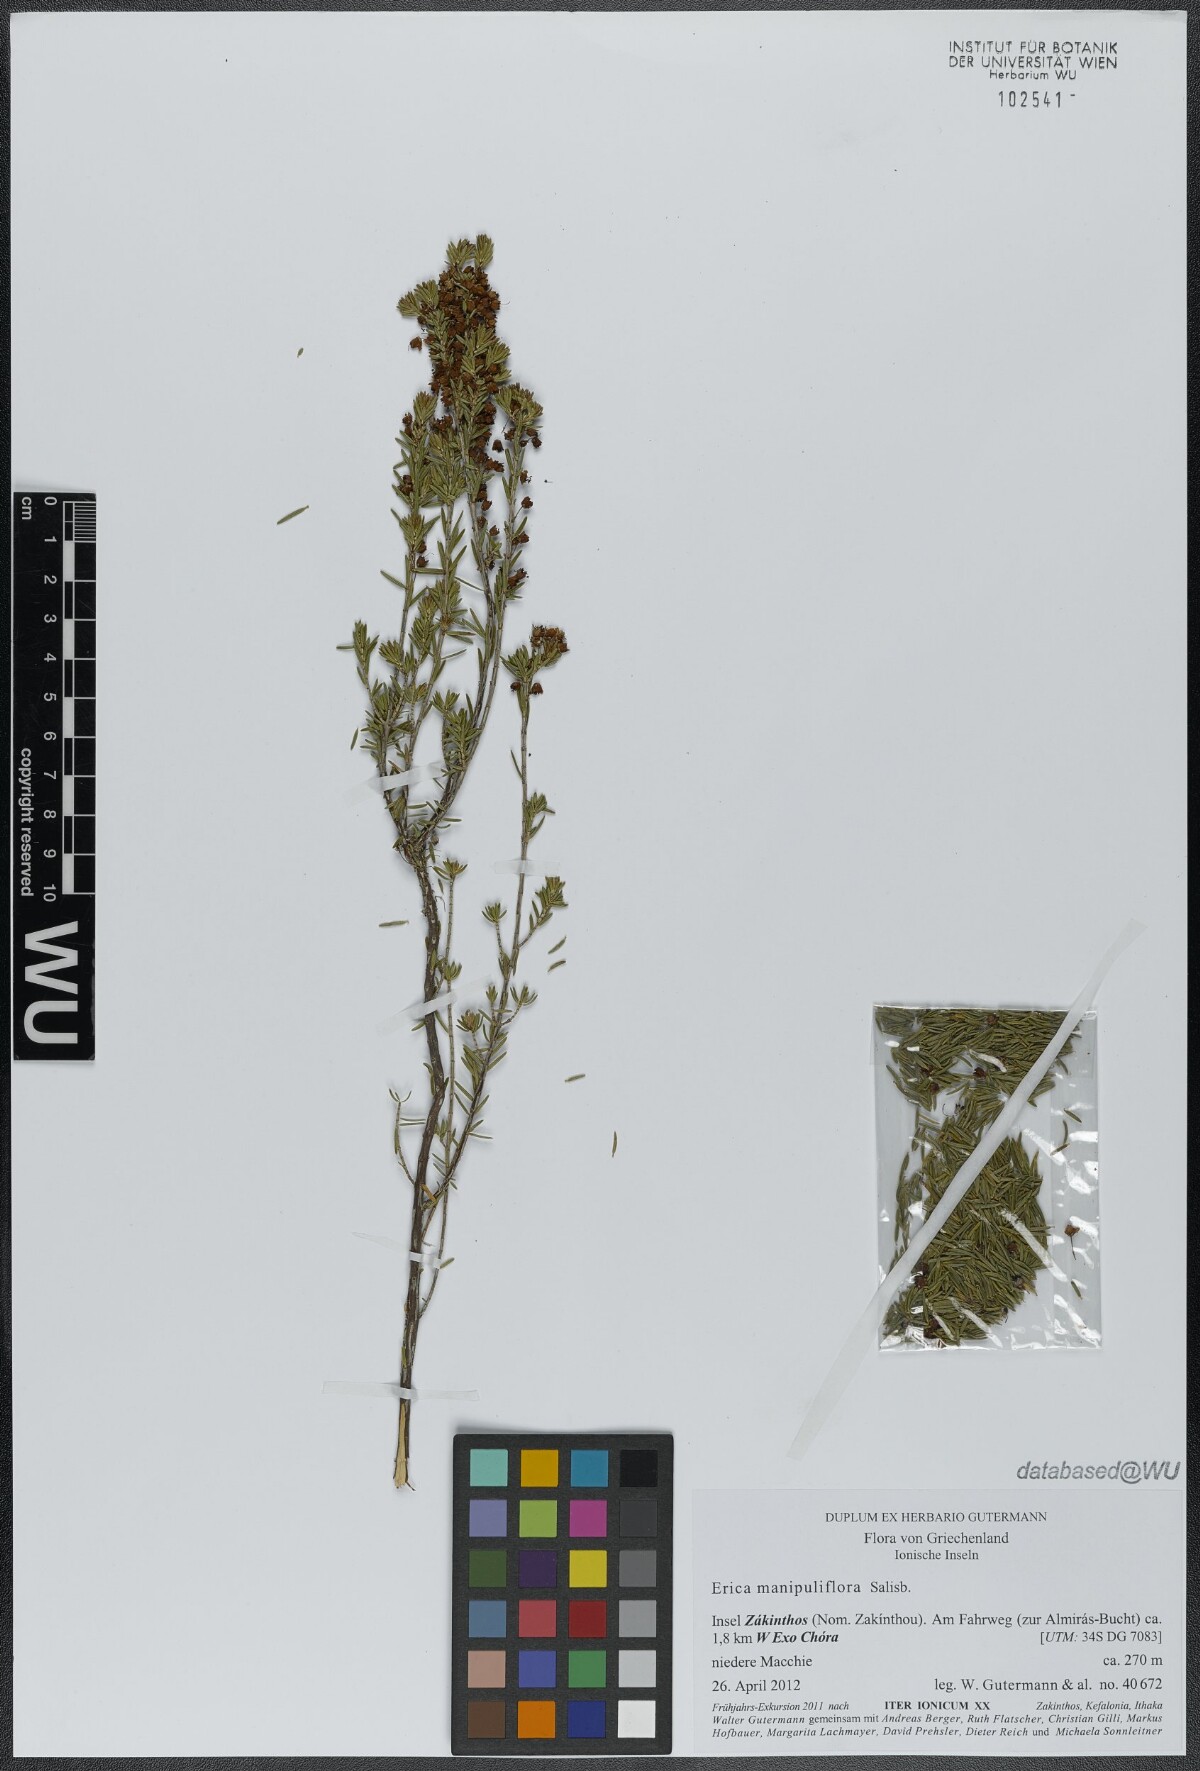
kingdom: Plantae
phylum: Tracheophyta
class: Magnoliopsida
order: Ericales
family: Ericaceae
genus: Erica
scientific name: Erica manipuliflora
